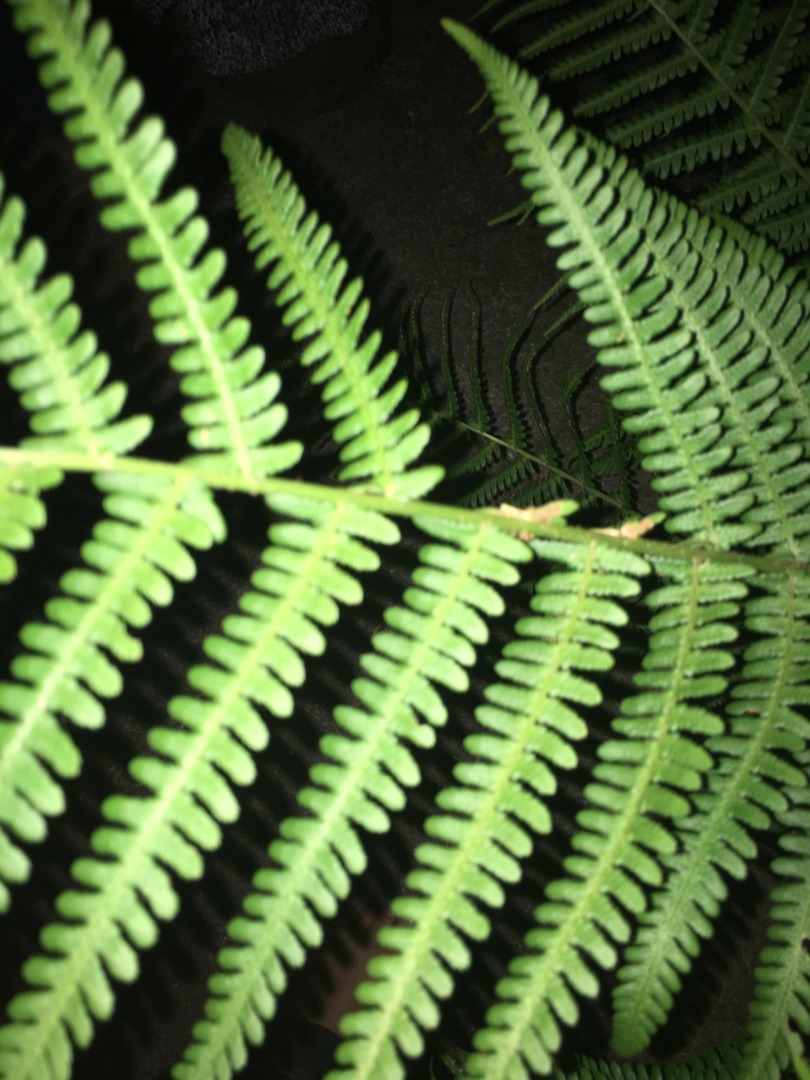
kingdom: Plantae
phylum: Tracheophyta
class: Polypodiopsida
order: Polypodiales
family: Dryopteridaceae
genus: Dryopteris
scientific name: Dryopteris filix-mas
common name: Almindelig mangeløv
